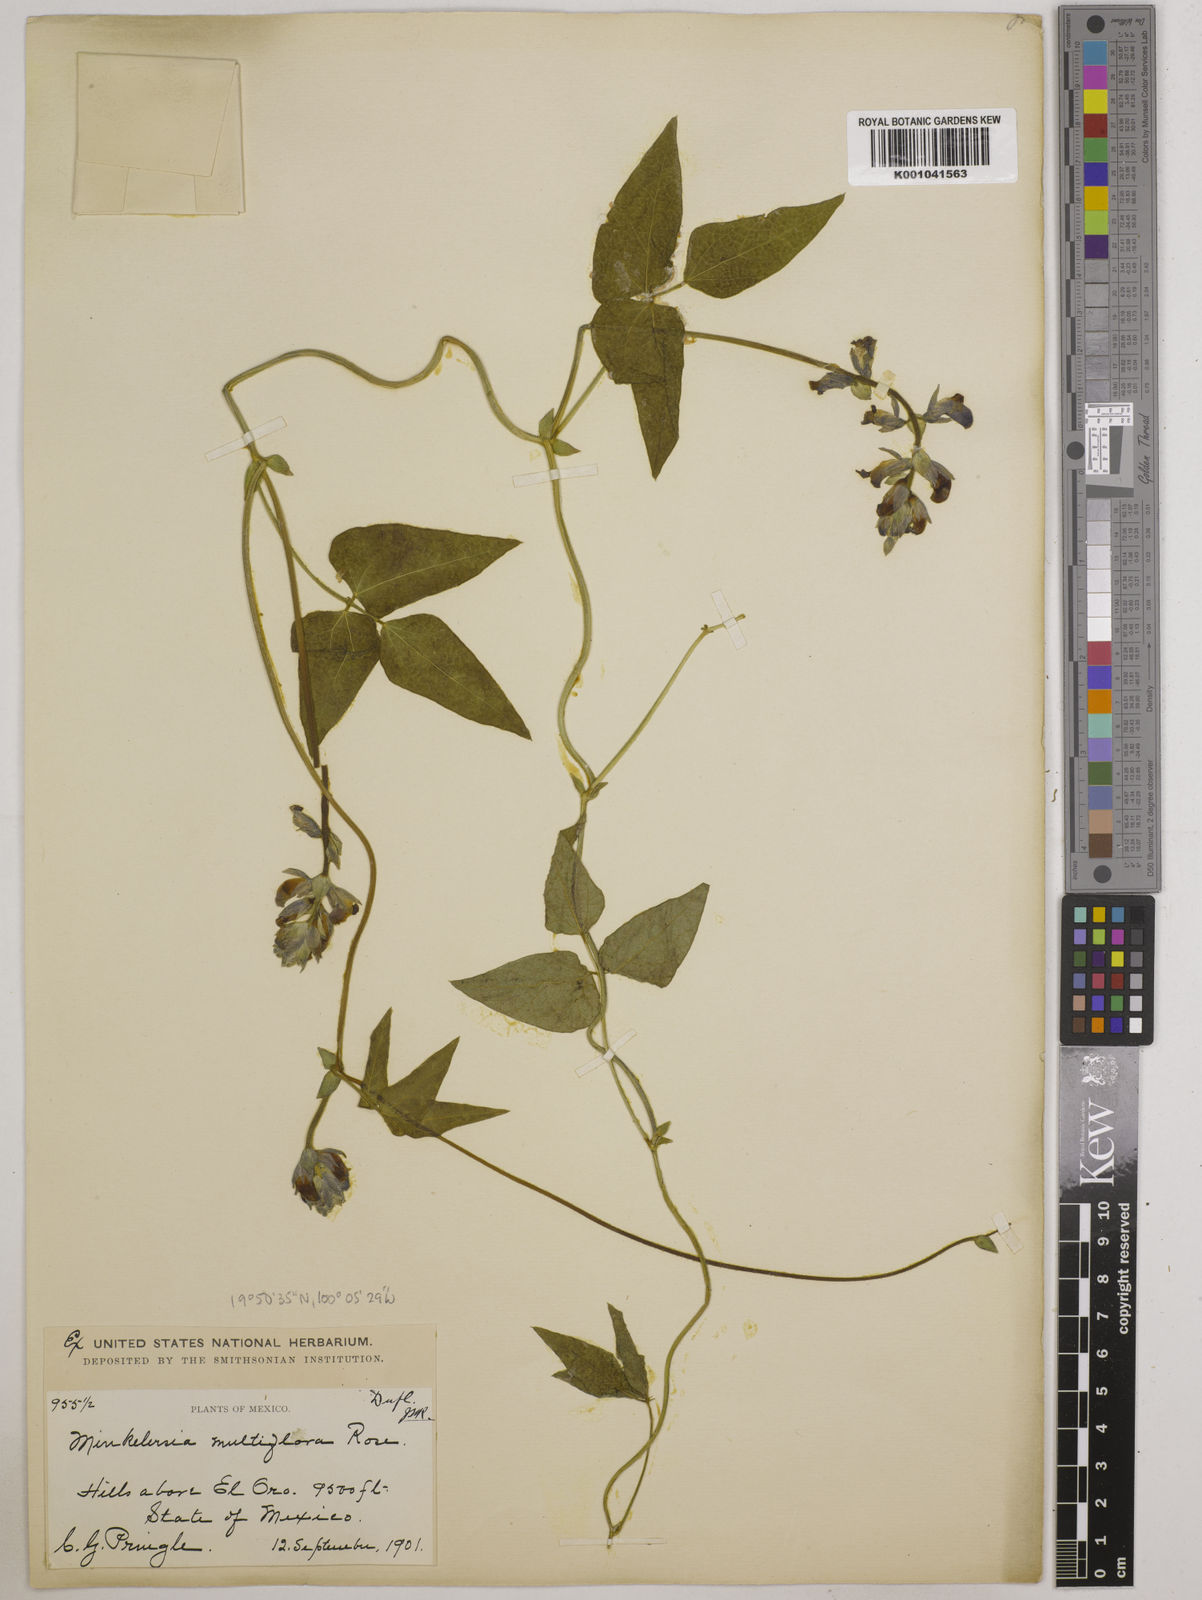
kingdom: Plantae
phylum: Tracheophyta
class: Magnoliopsida
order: Fabales
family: Fabaceae
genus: Phaseolus
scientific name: Phaseolus vulcanicus
